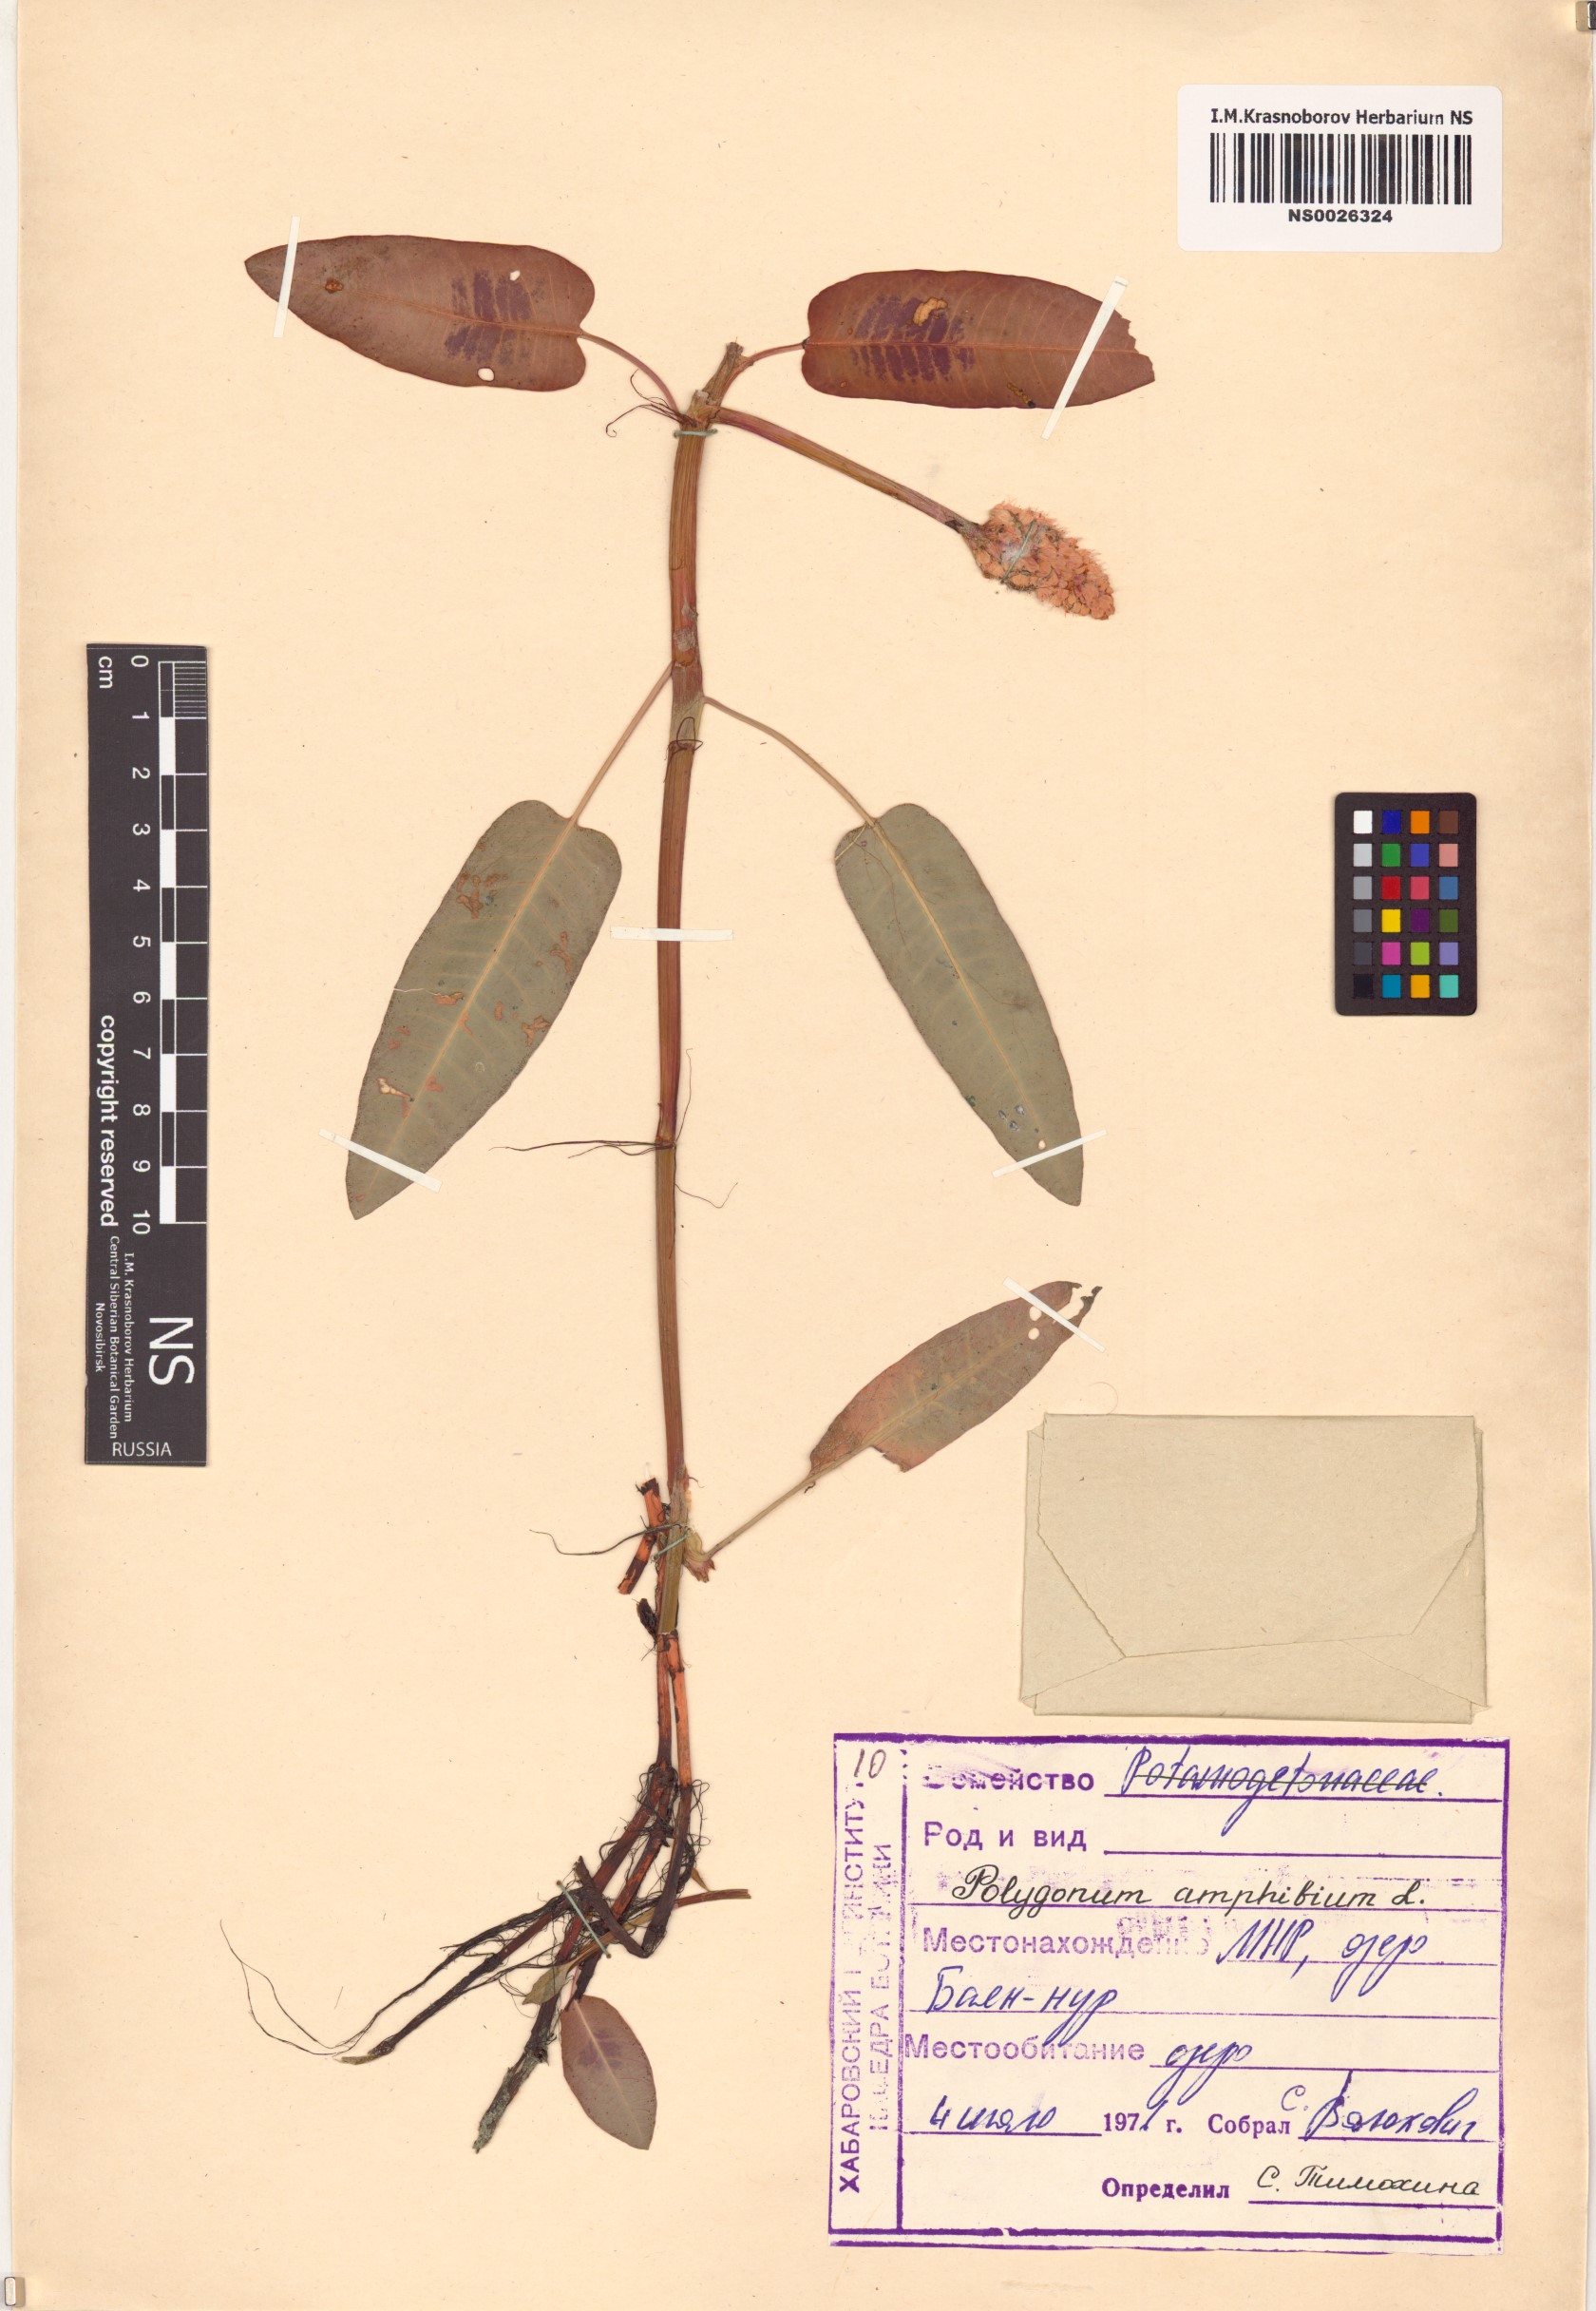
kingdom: Plantae
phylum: Tracheophyta
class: Magnoliopsida
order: Caryophyllales
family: Polygonaceae
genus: Persicaria
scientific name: Persicaria amphibia
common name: Amphibious bistort
